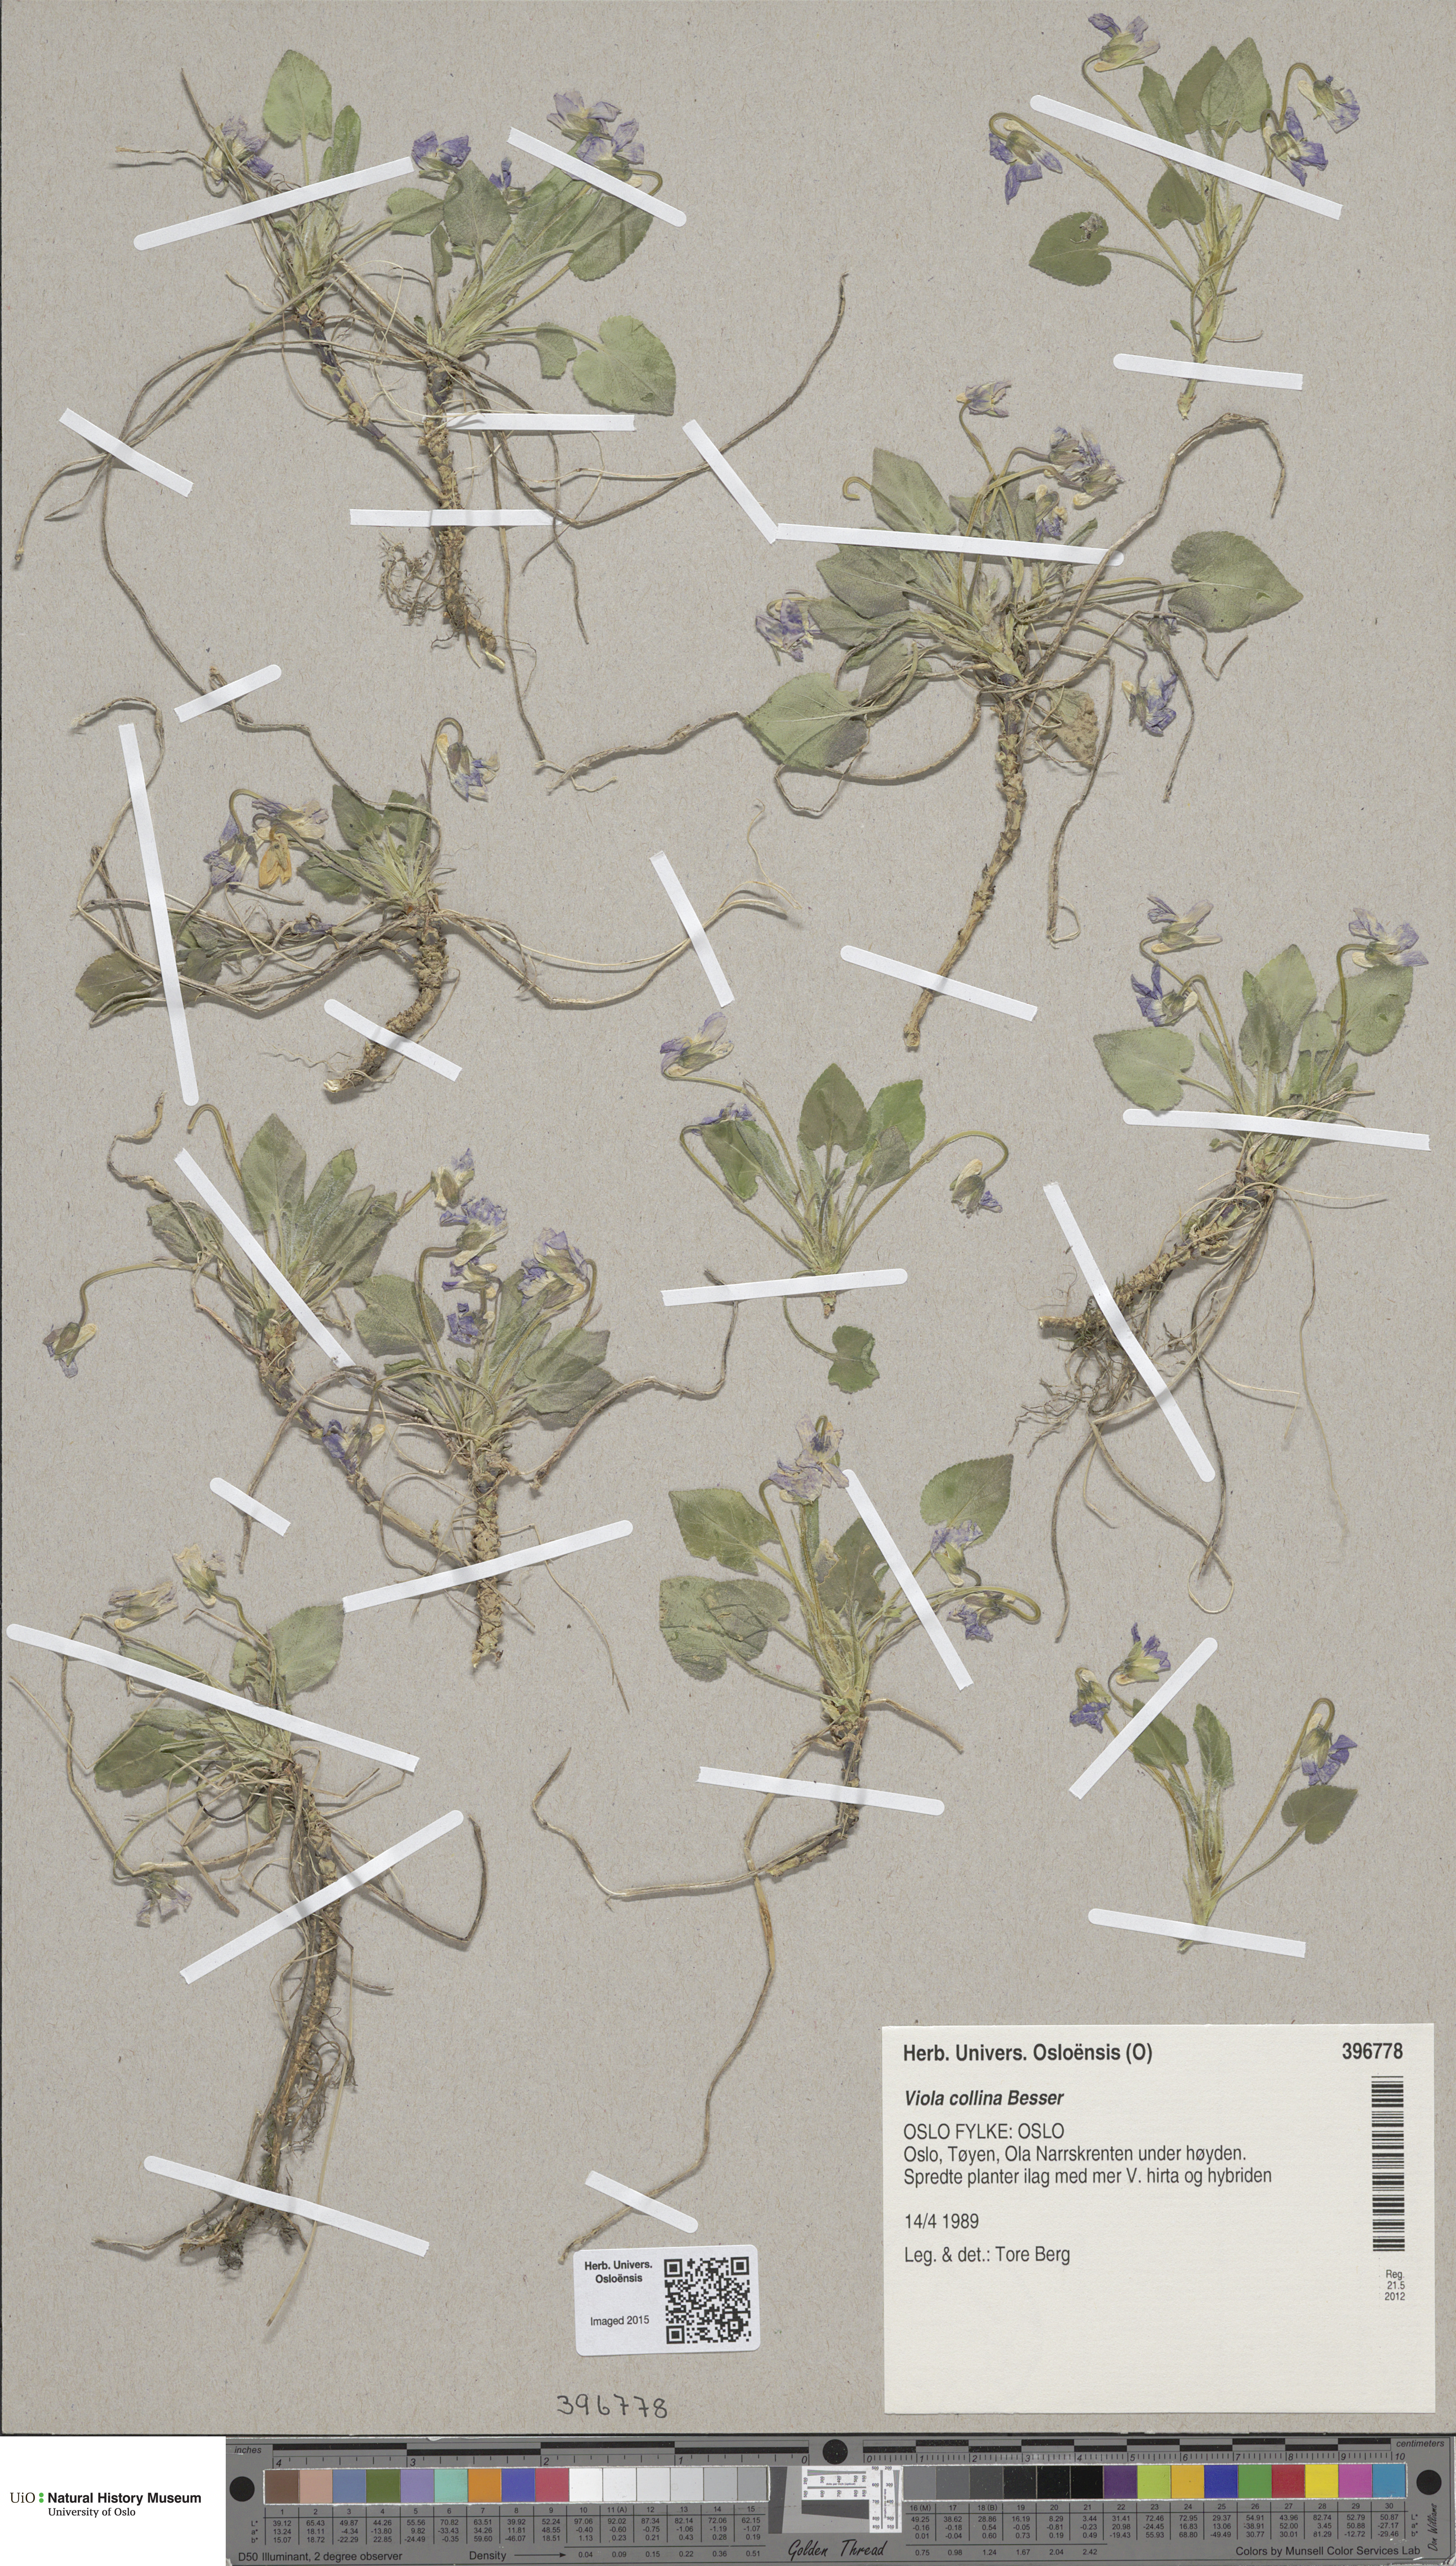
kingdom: Plantae
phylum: Tracheophyta
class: Magnoliopsida
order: Malpighiales
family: Violaceae
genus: Viola
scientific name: Viola collina
